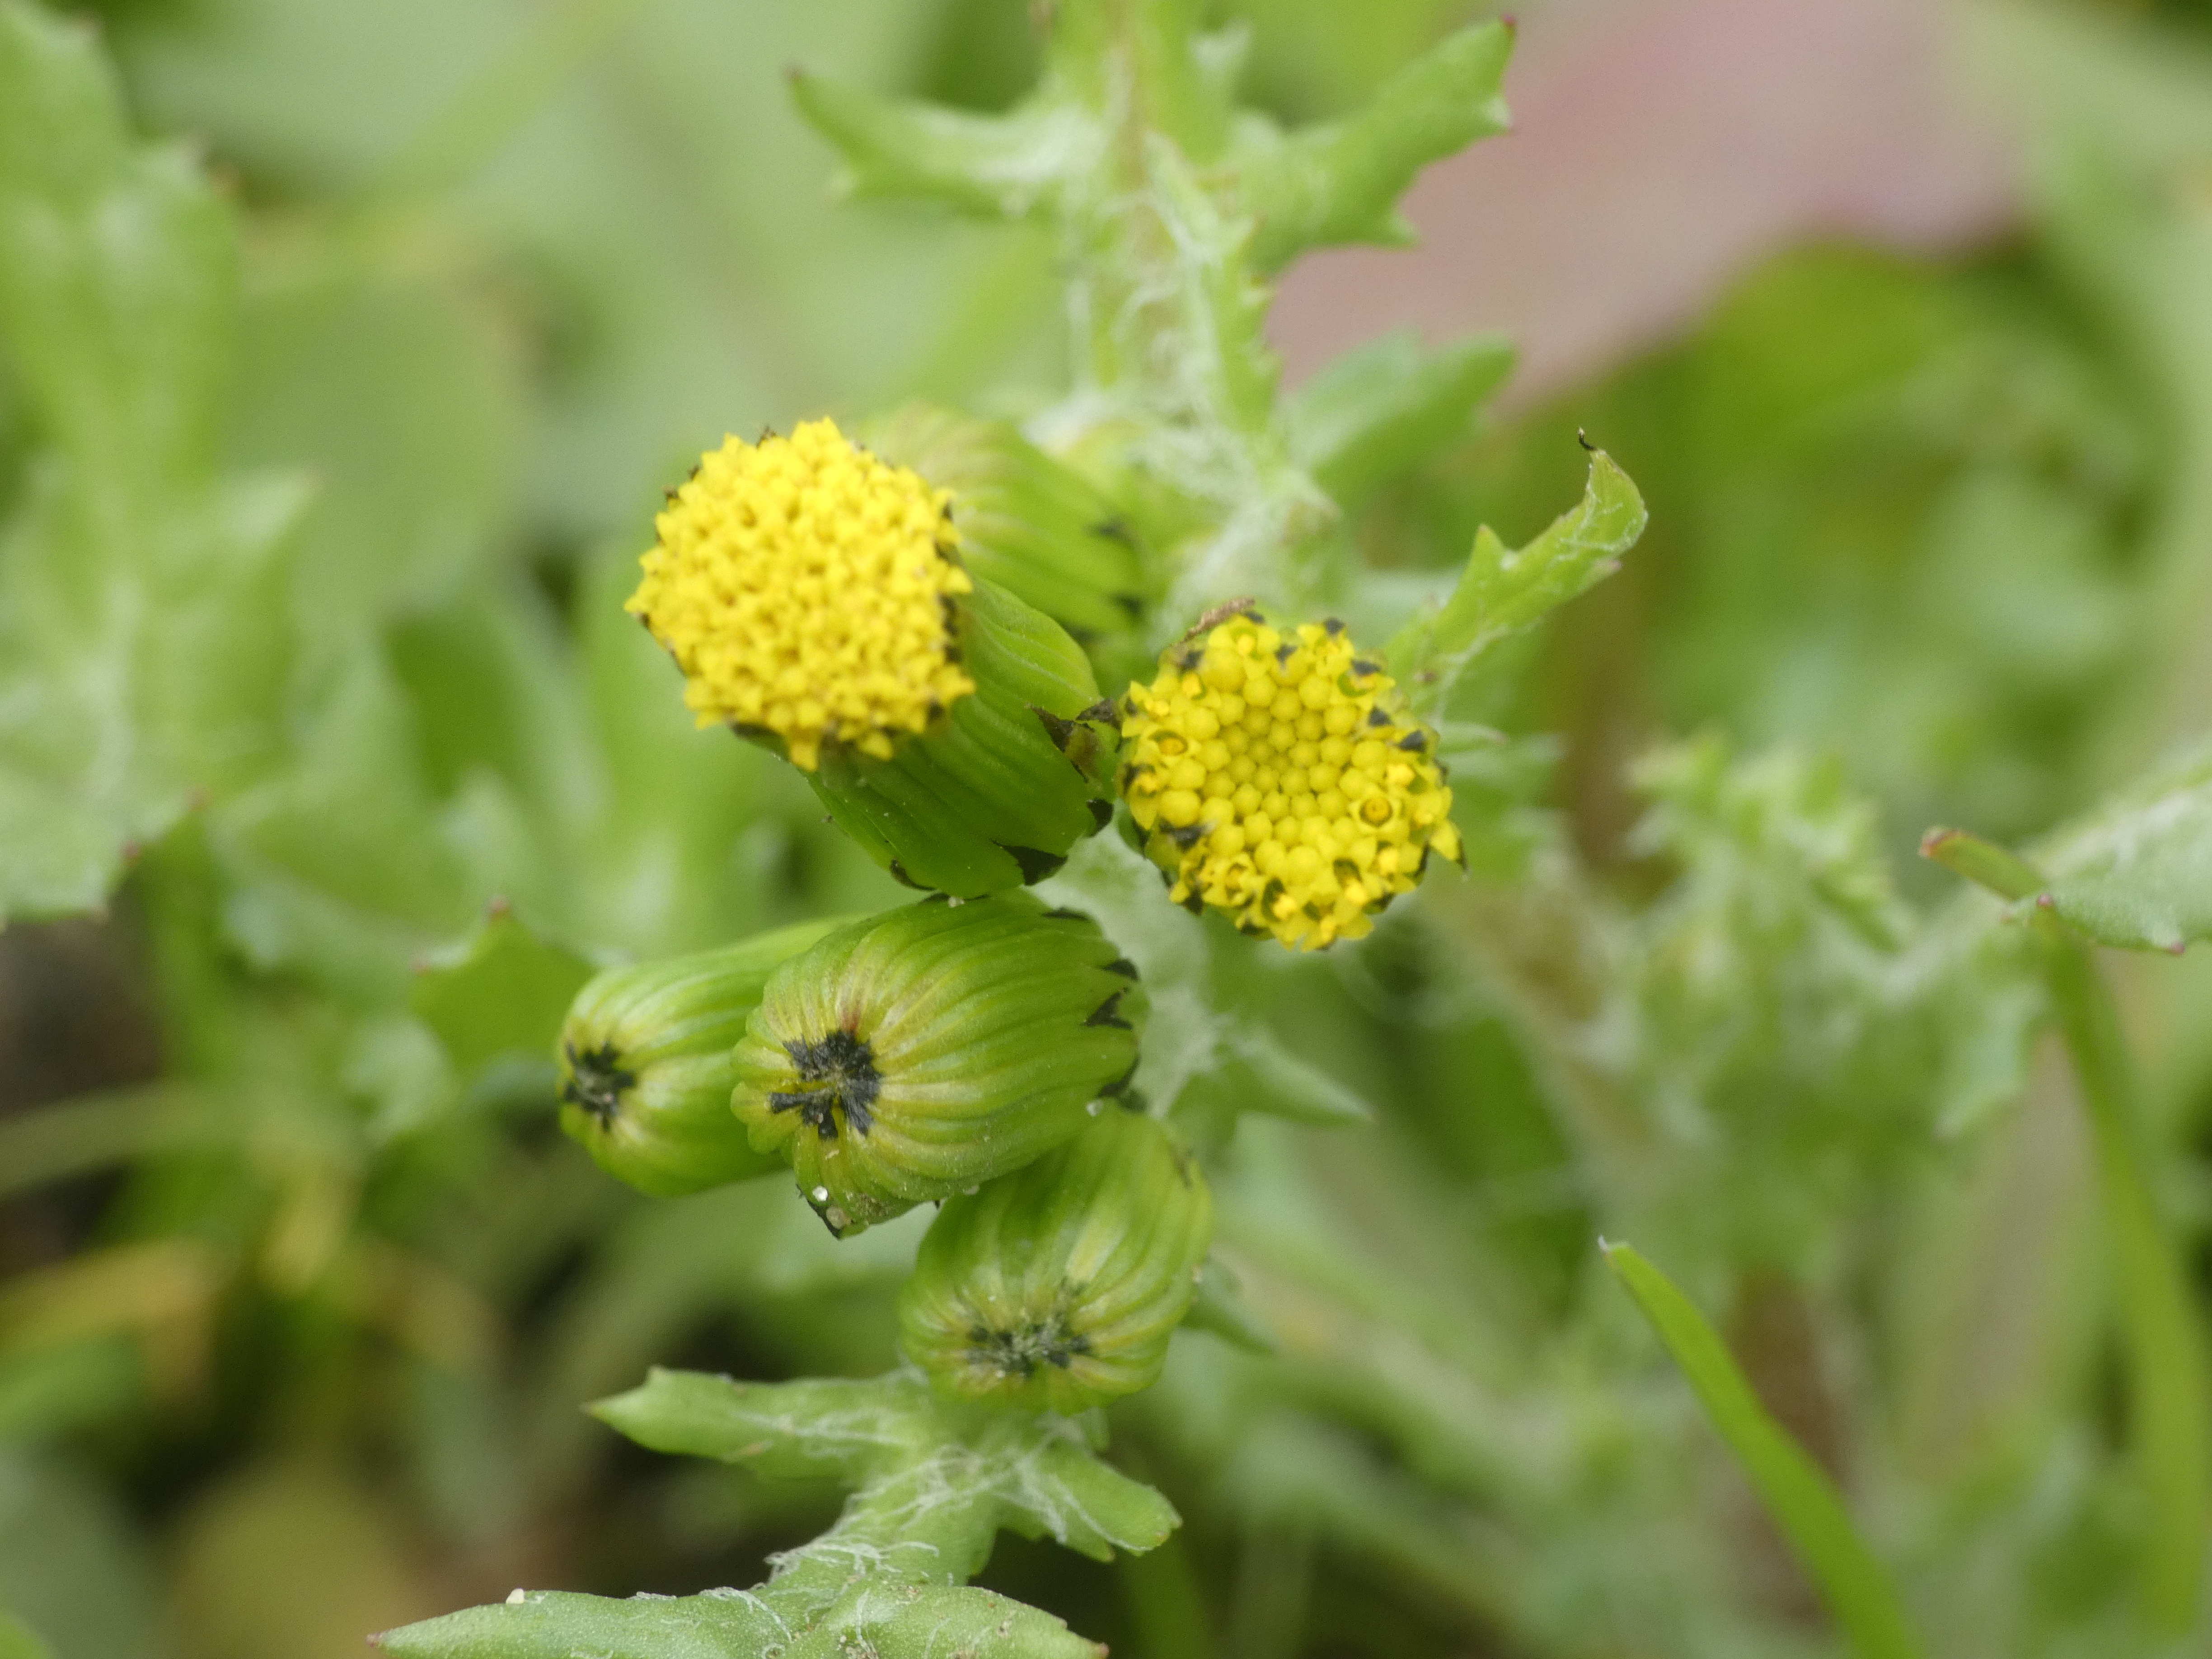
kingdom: Plantae
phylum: Tracheophyta
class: Magnoliopsida
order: Asterales
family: Asteraceae
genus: Senecio
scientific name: Senecio vulgaris
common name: Almindelig brandbæger
